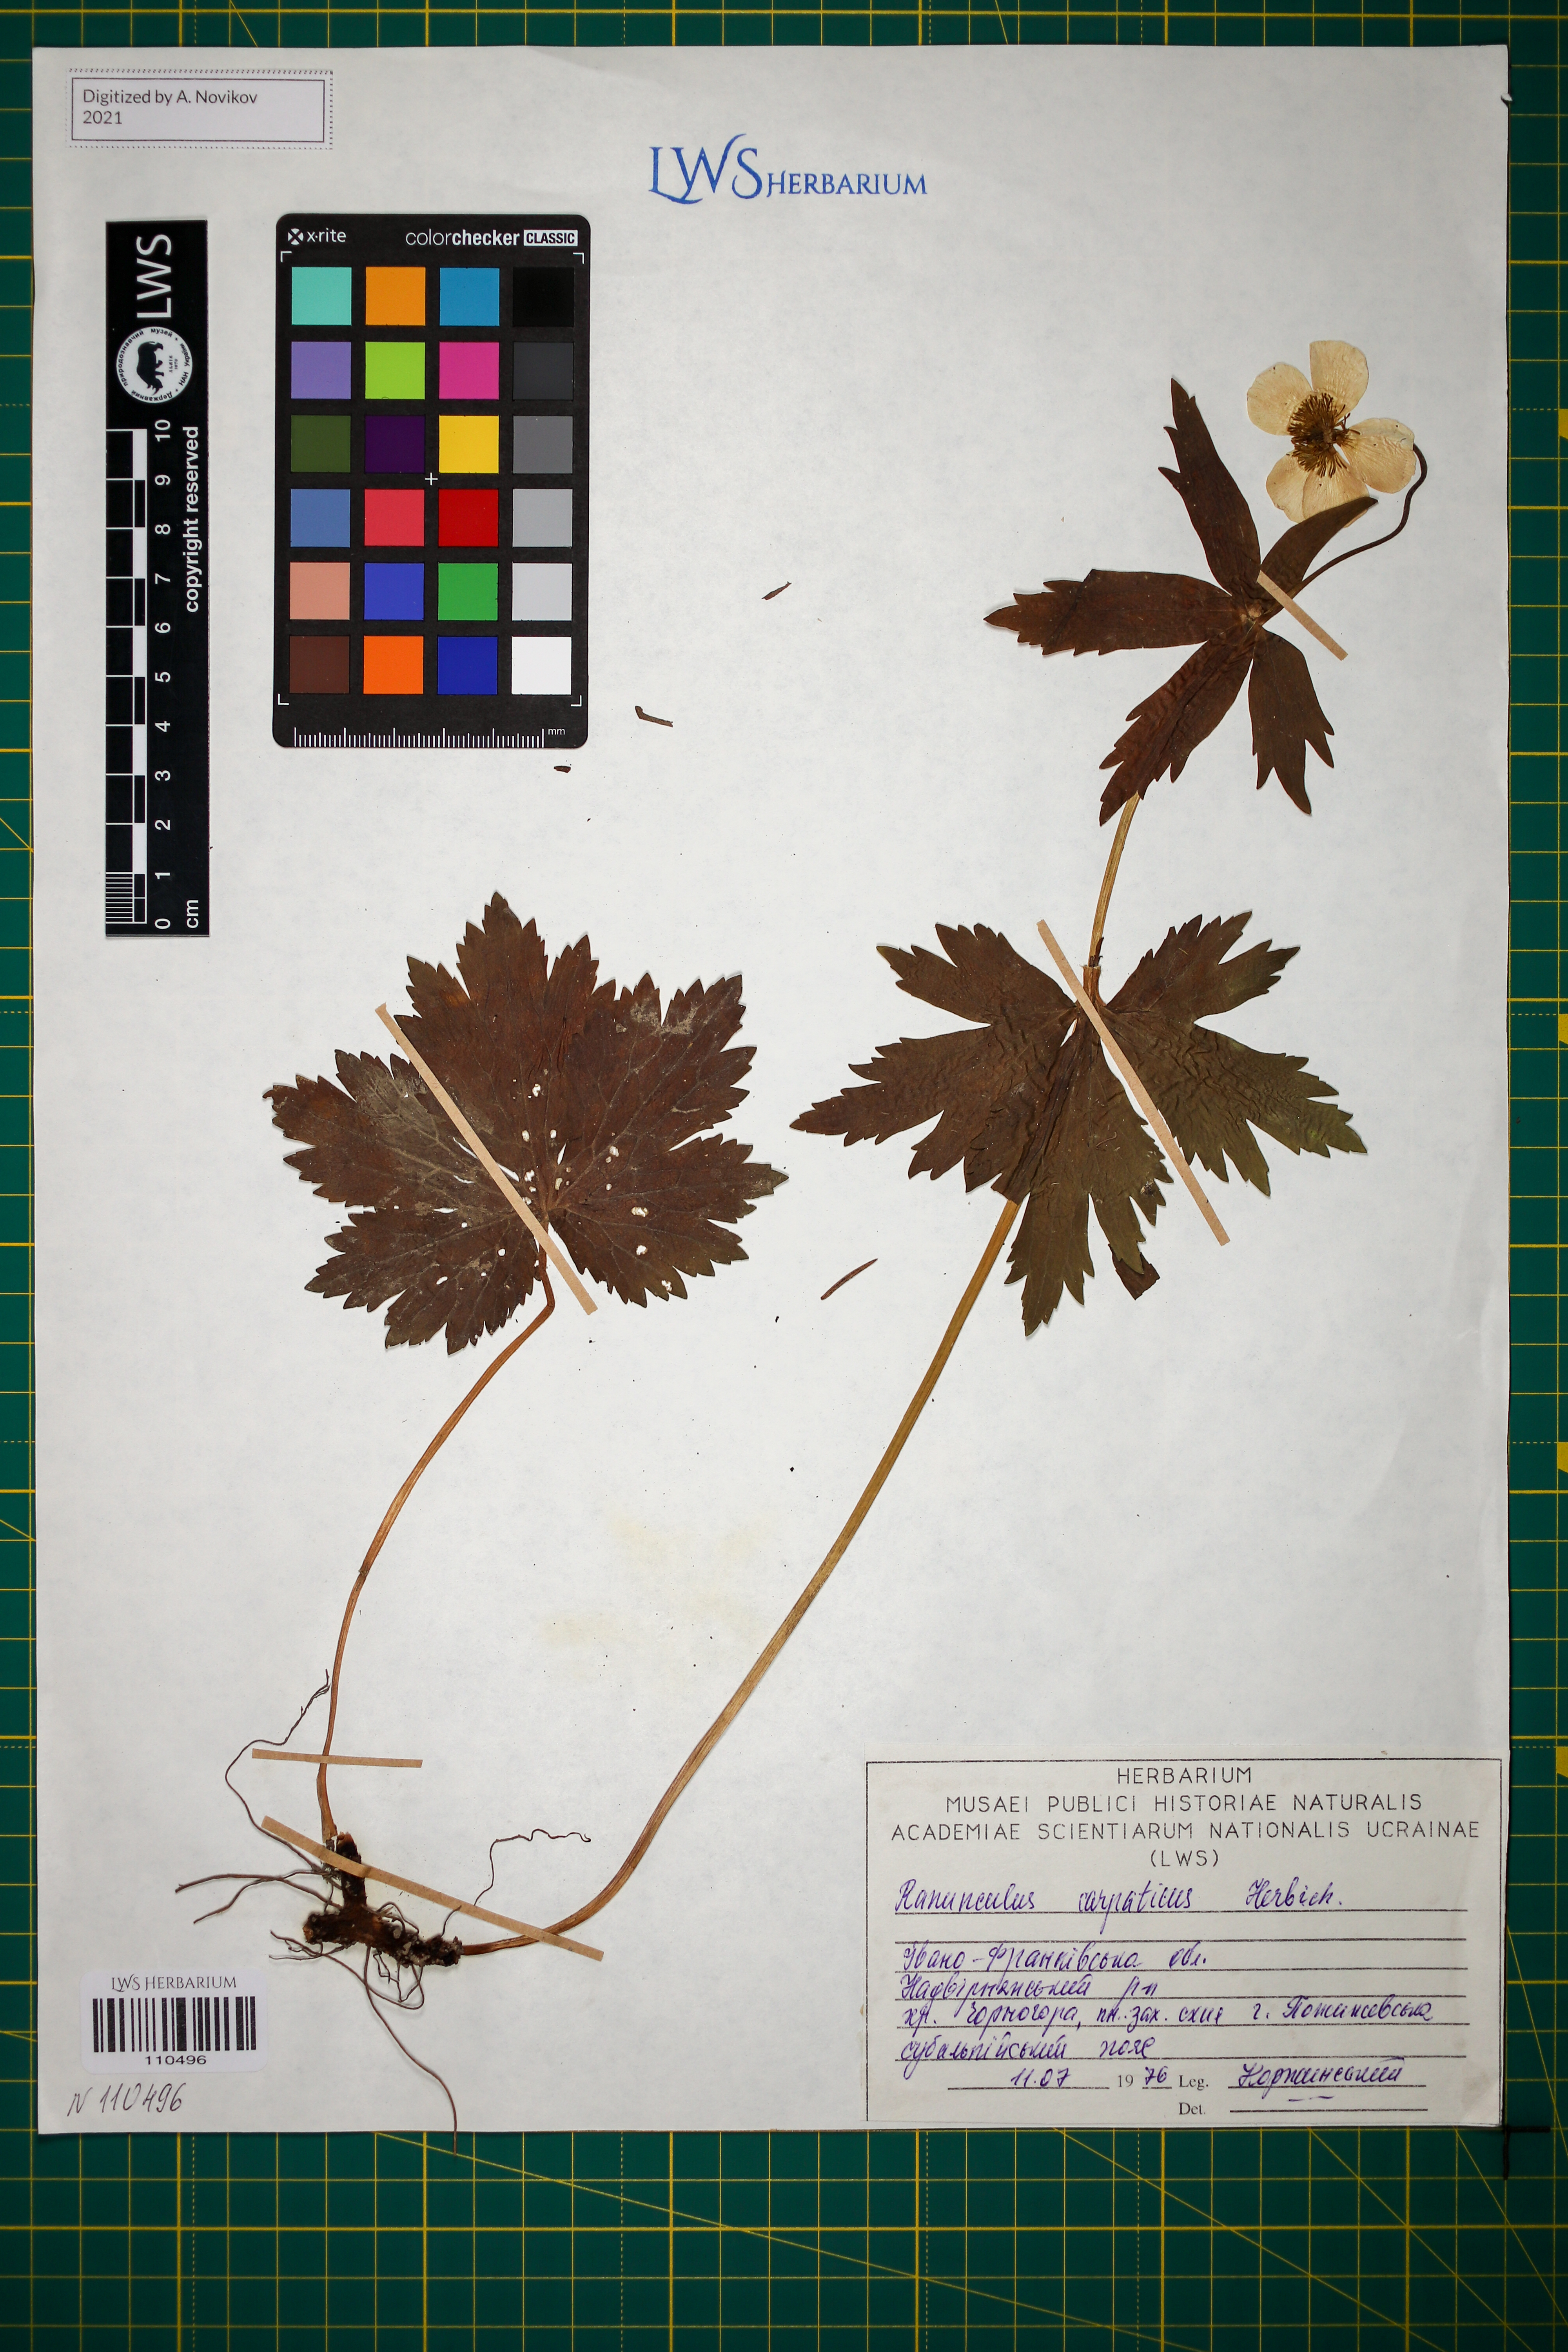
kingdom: Plantae
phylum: Tracheophyta
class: Magnoliopsida
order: Ranunculales
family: Ranunculaceae
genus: Ranunculus
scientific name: Ranunculus carpaticus
